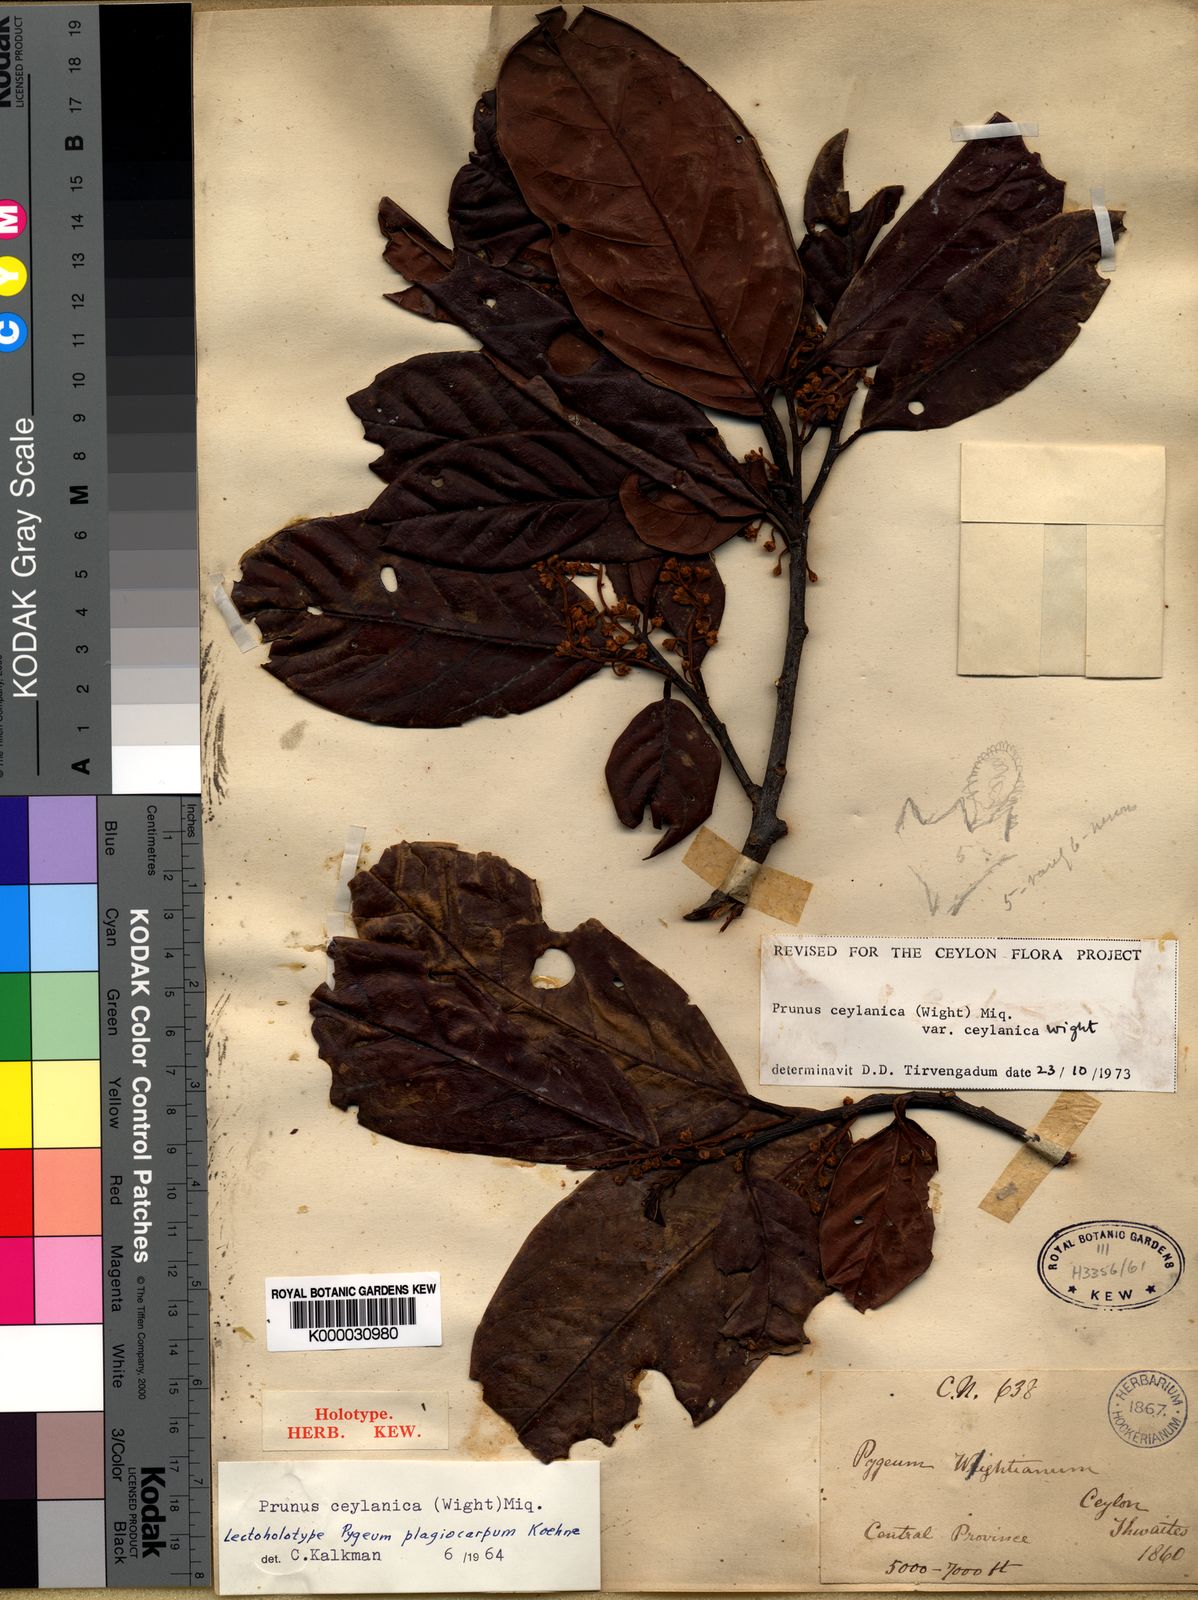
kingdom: Plantae
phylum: Tracheophyta
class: Magnoliopsida
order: Rosales
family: Rosaceae
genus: Prunus
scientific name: Prunus ceylanica
